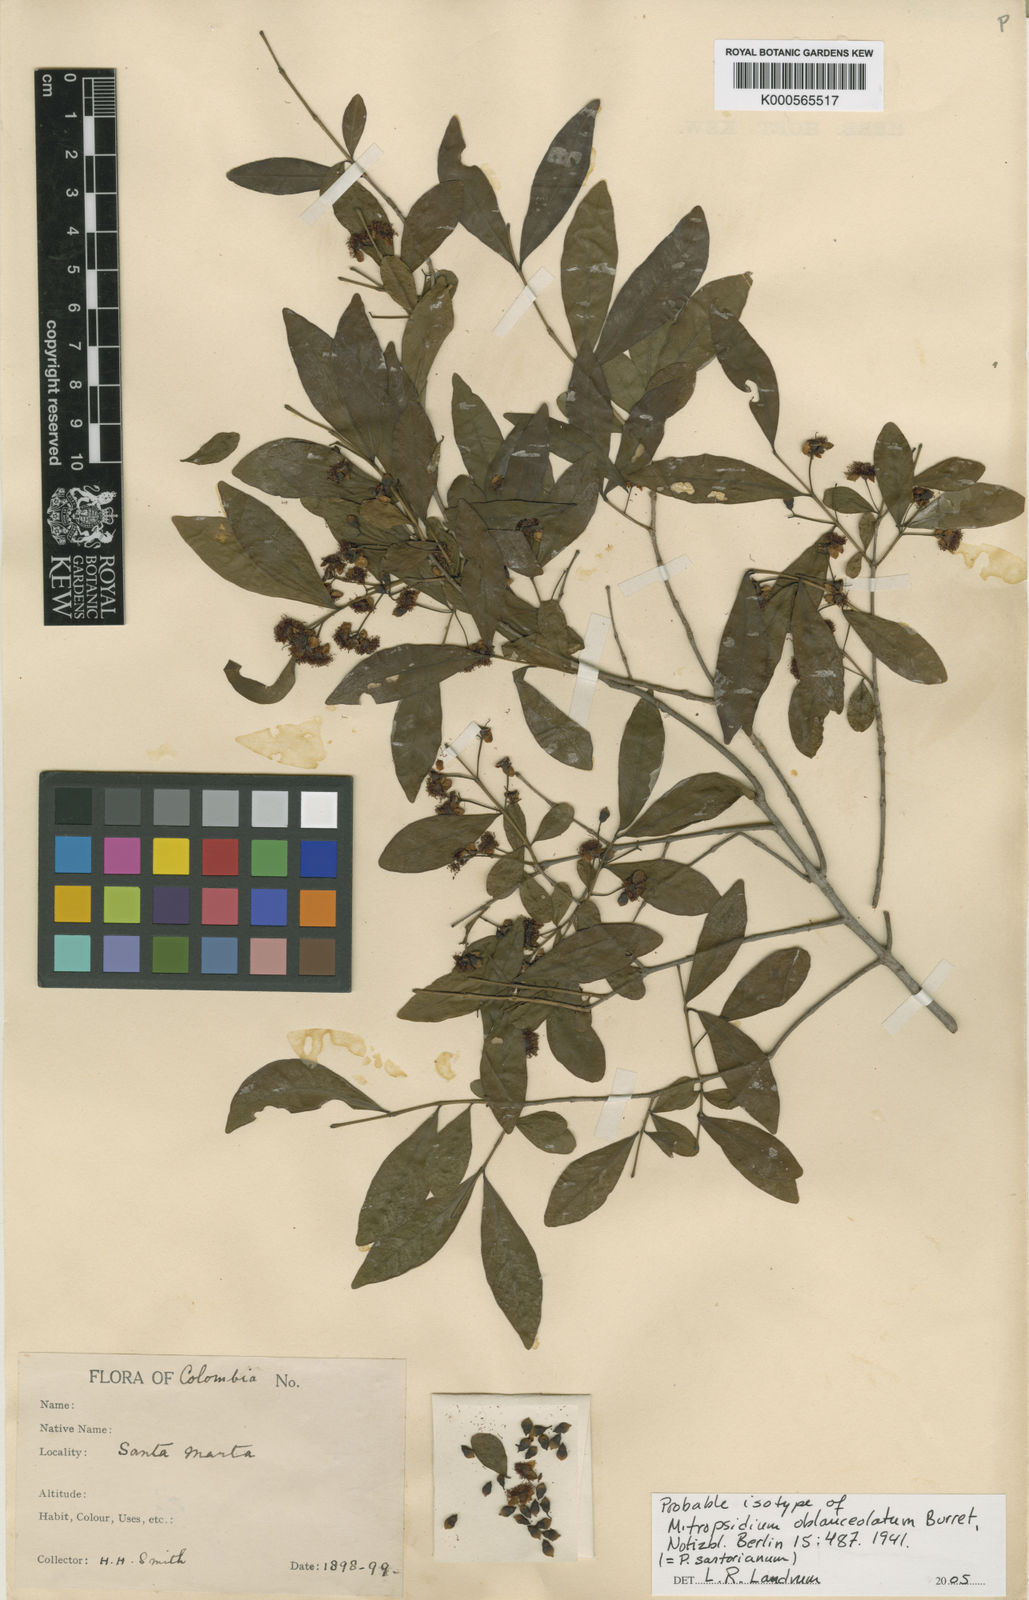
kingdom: Plantae
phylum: Tracheophyta
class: Magnoliopsida
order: Myrtales
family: Myrtaceae
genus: Psidium
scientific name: Psidium sartorianum
